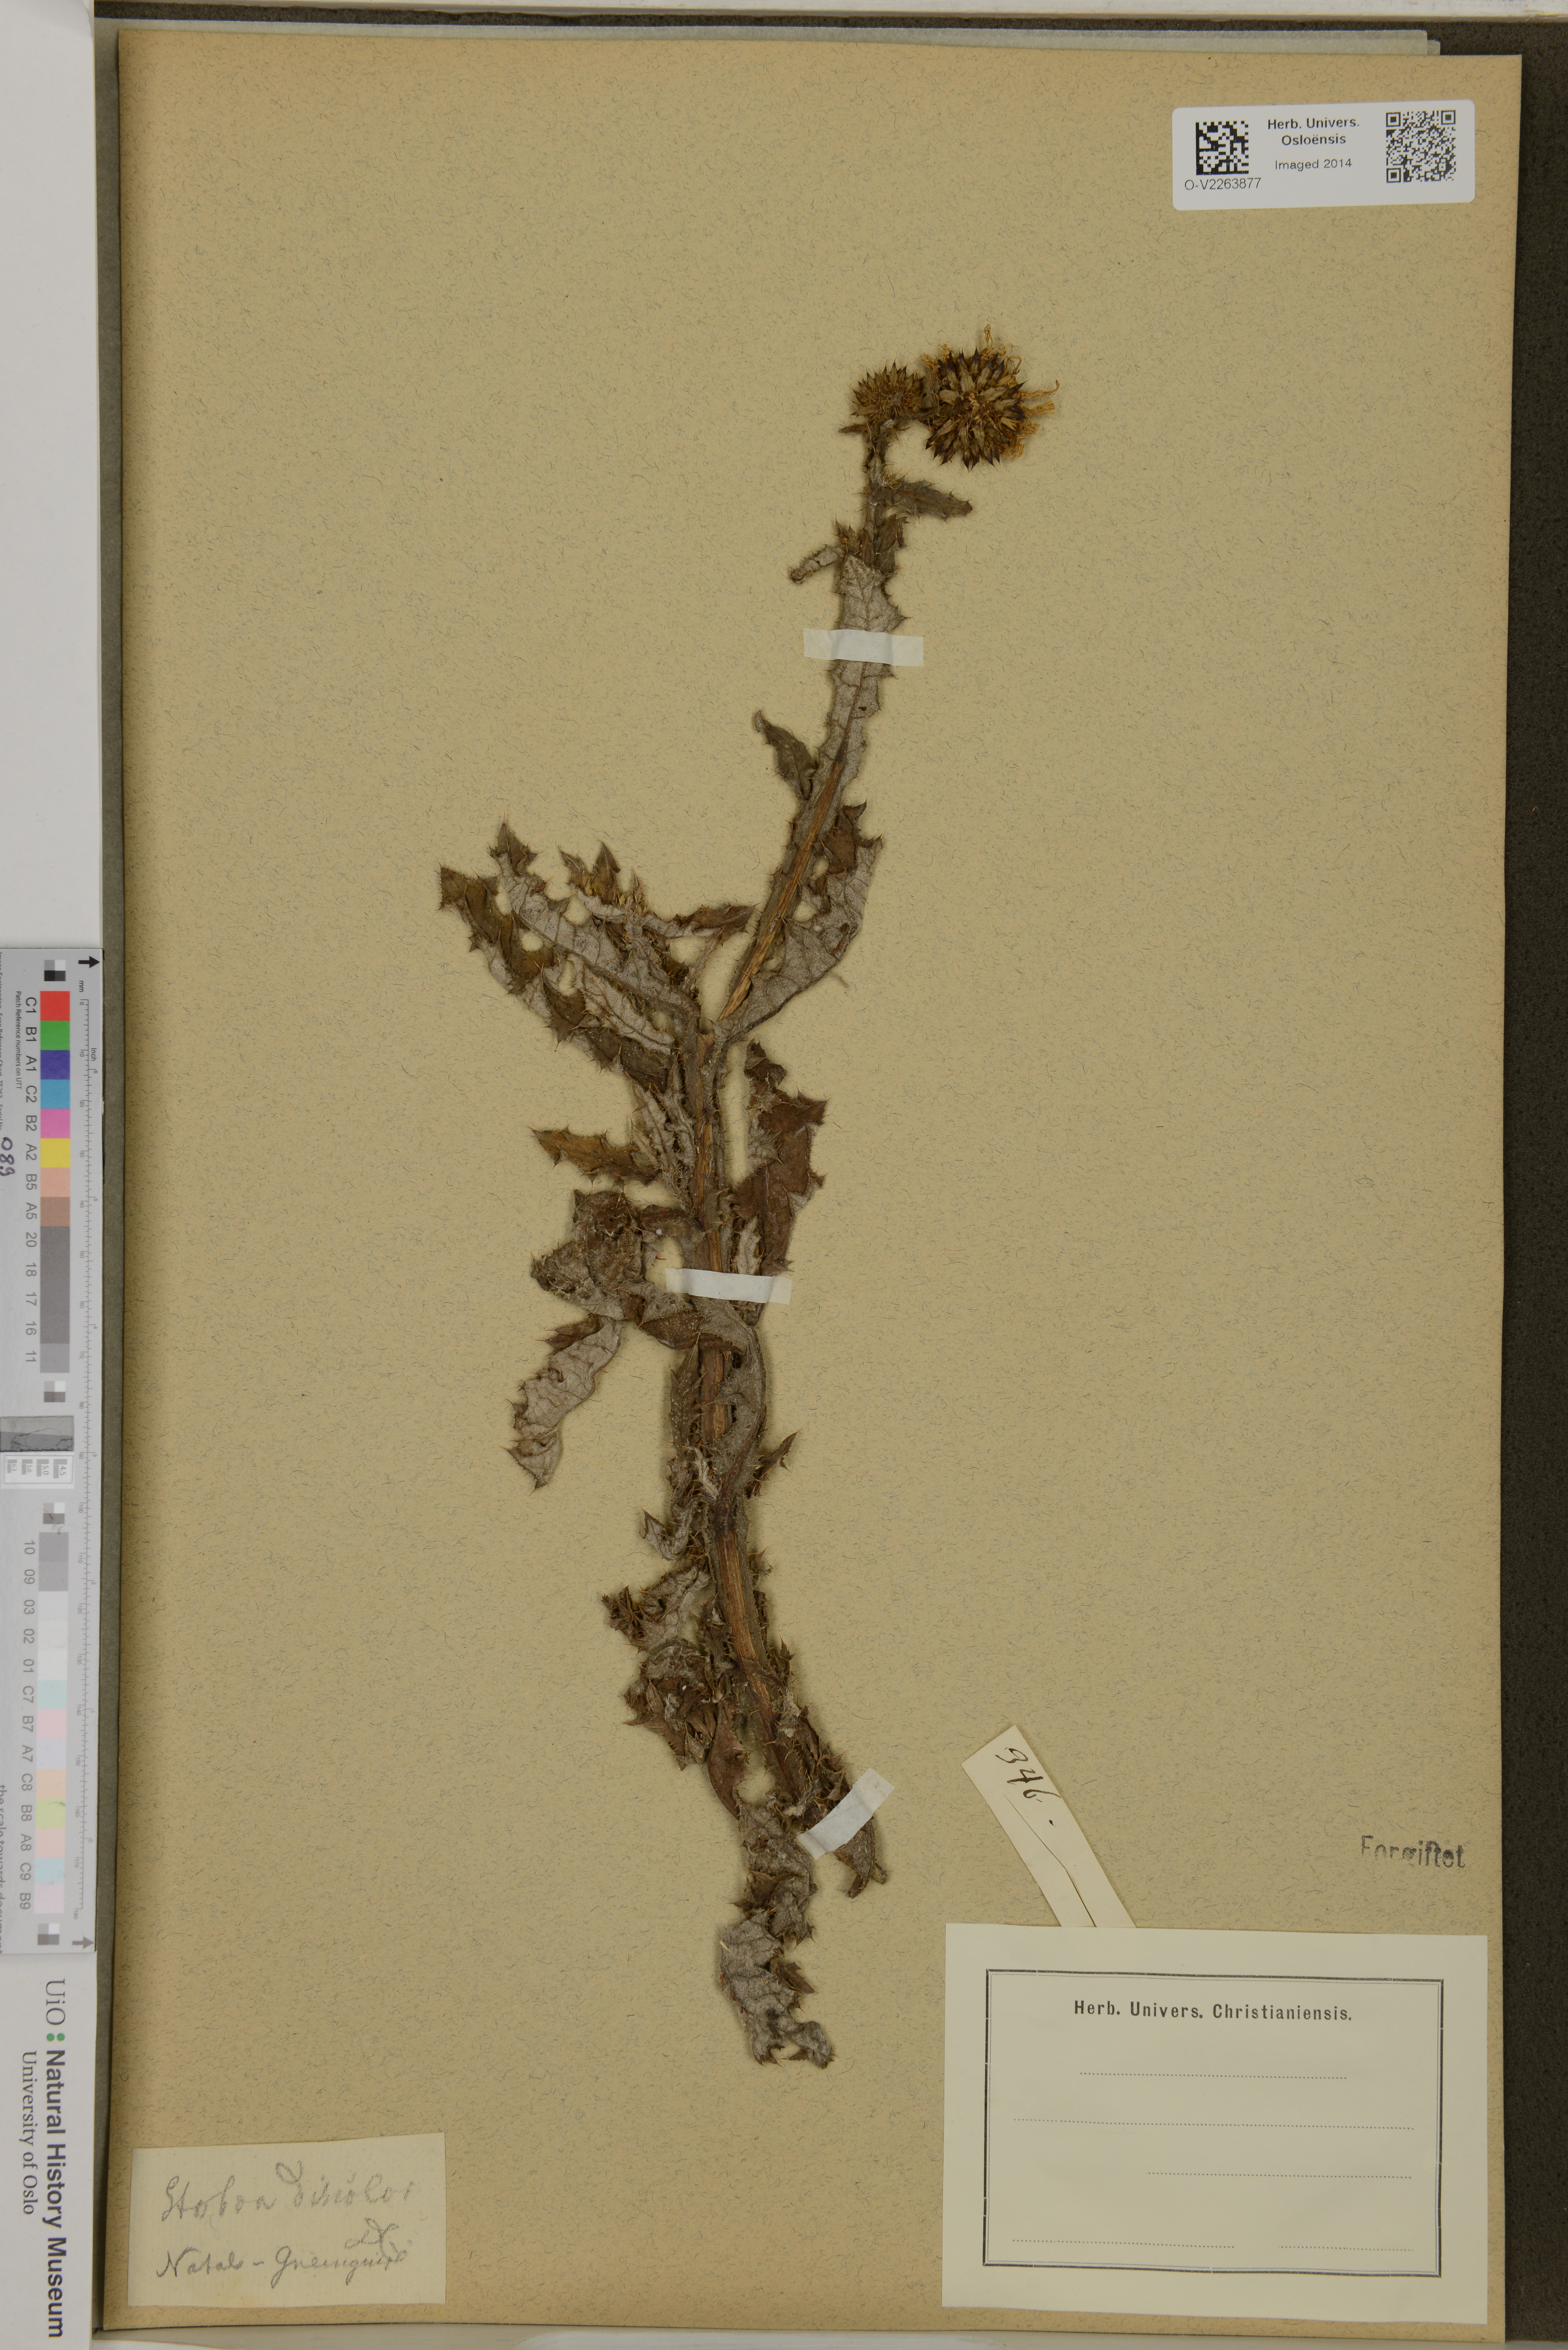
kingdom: Plantae
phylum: Tracheophyta
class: Magnoliopsida
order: Asterales
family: Asteraceae
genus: Berkheya
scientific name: Berkheya discolor
